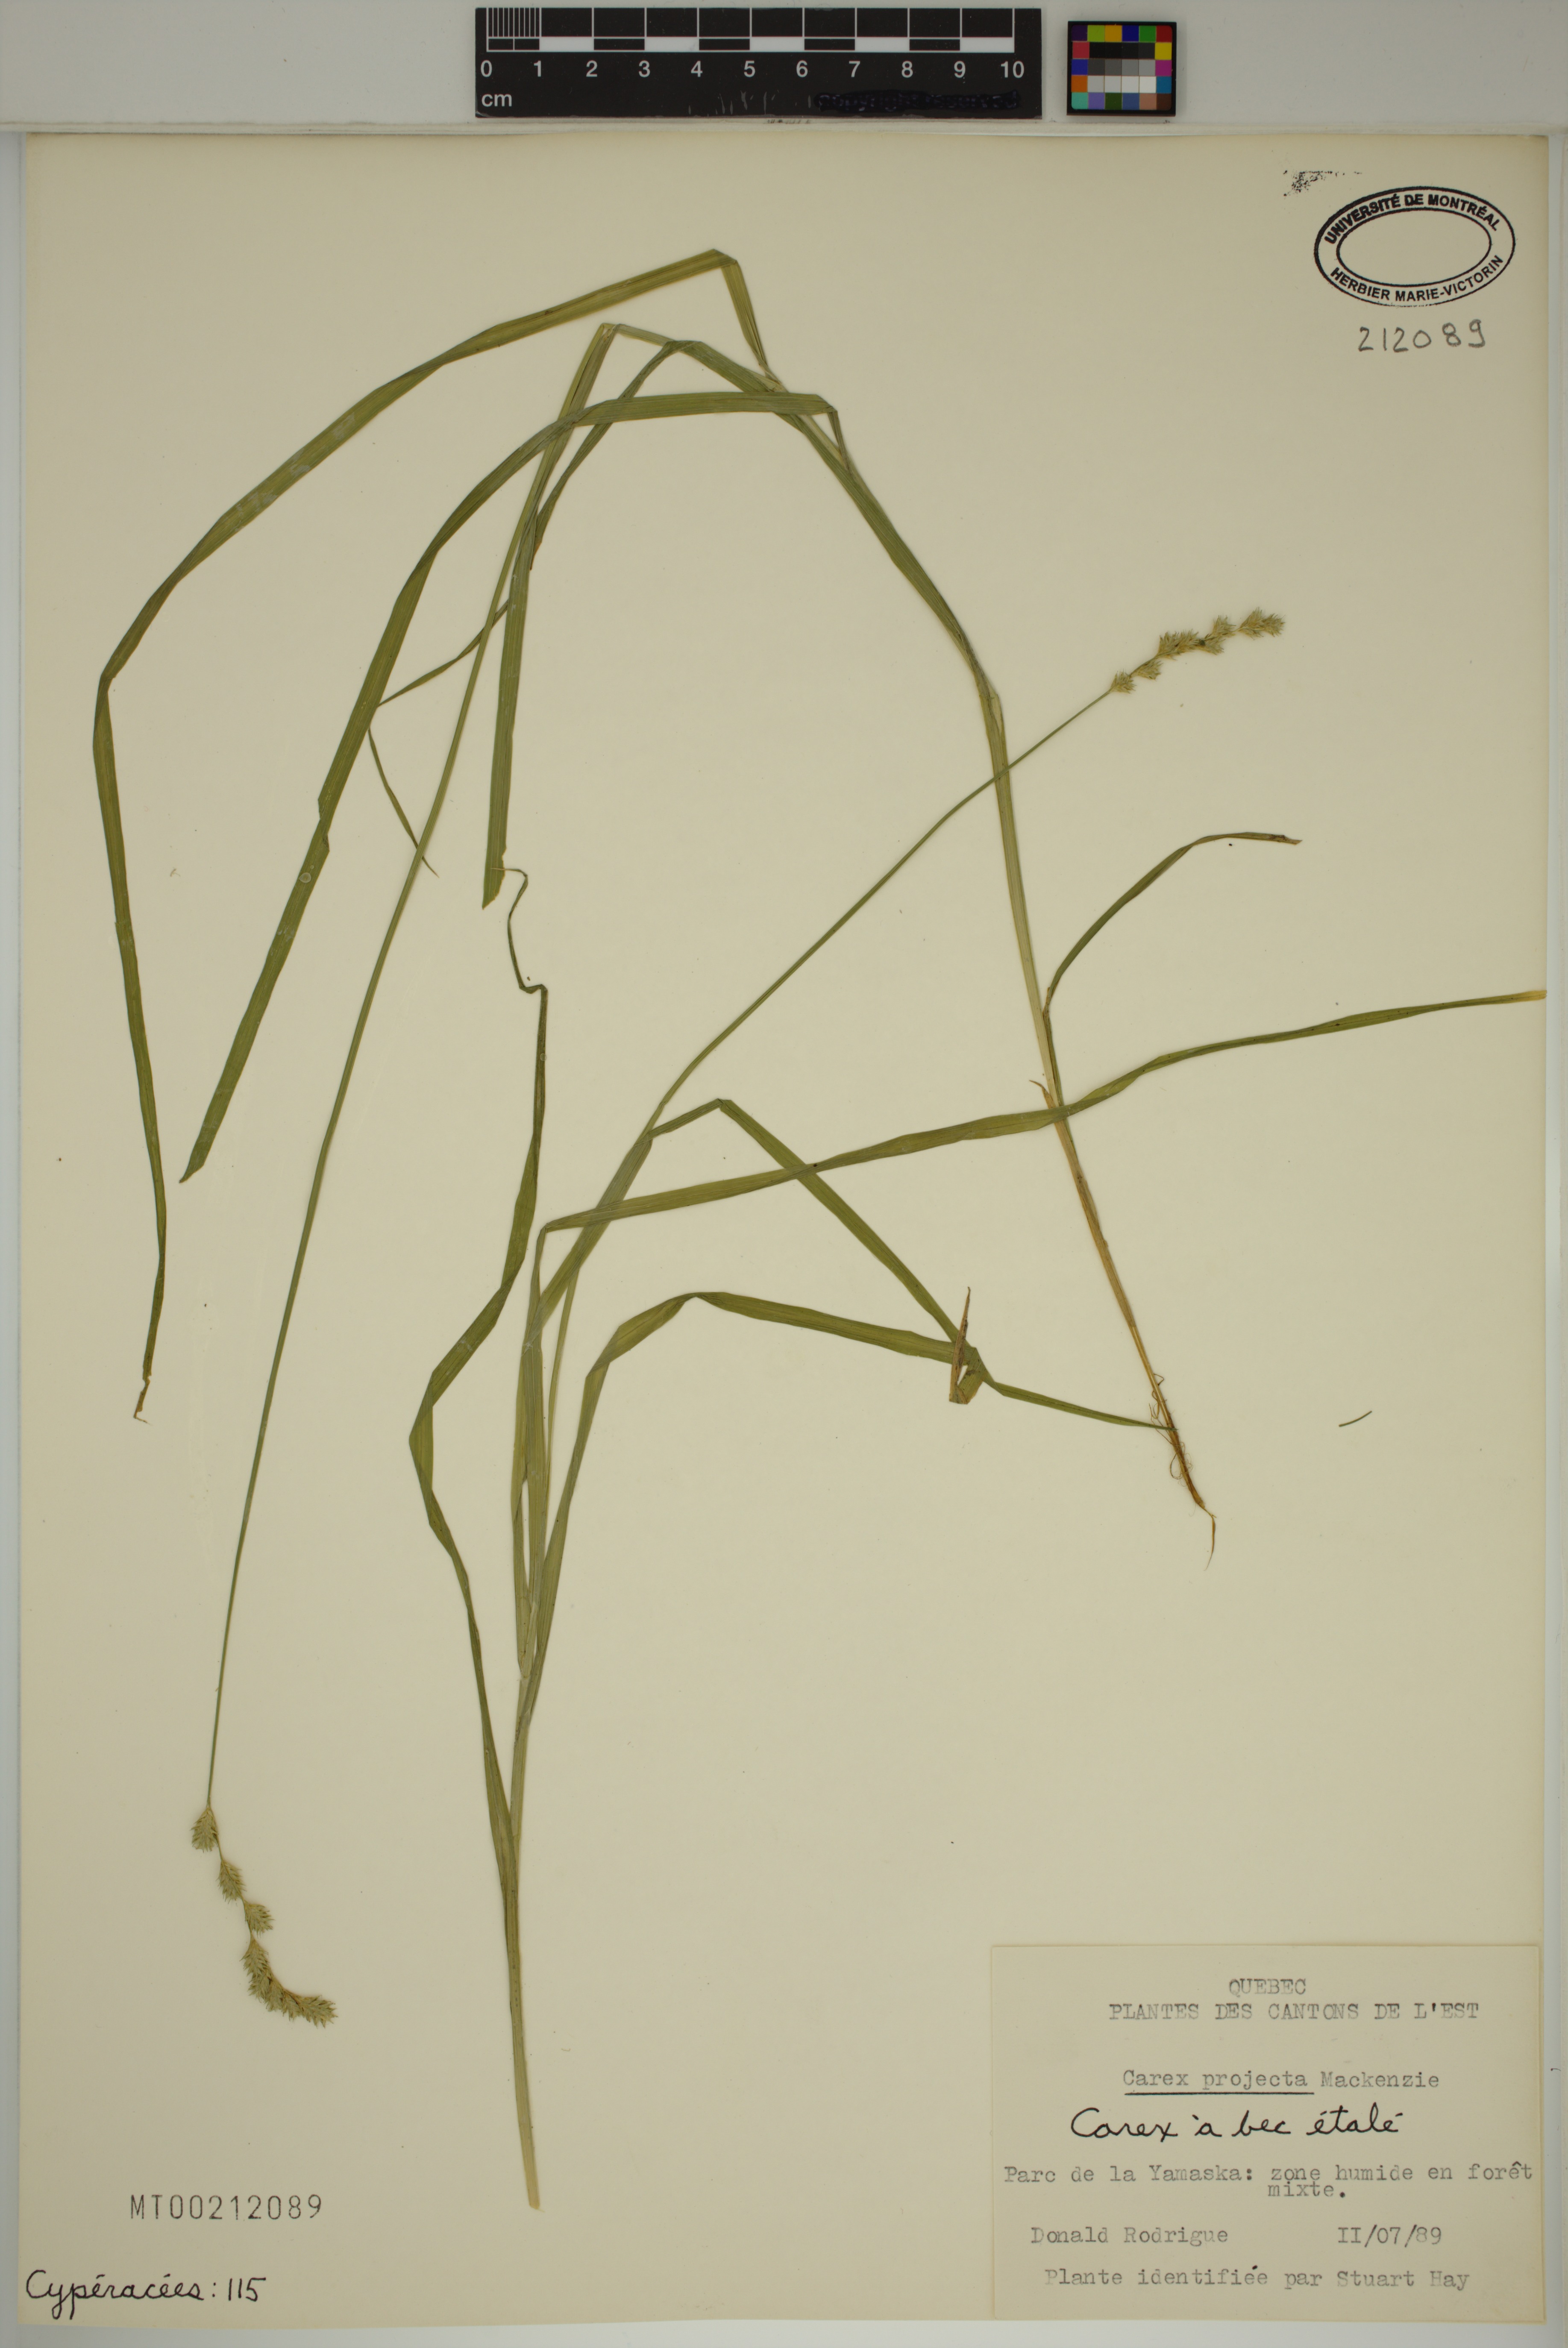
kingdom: Plantae
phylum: Tracheophyta
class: Liliopsida
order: Poales
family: Cyperaceae
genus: Carex
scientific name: Carex projecta
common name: Loose-headed oval sedge
